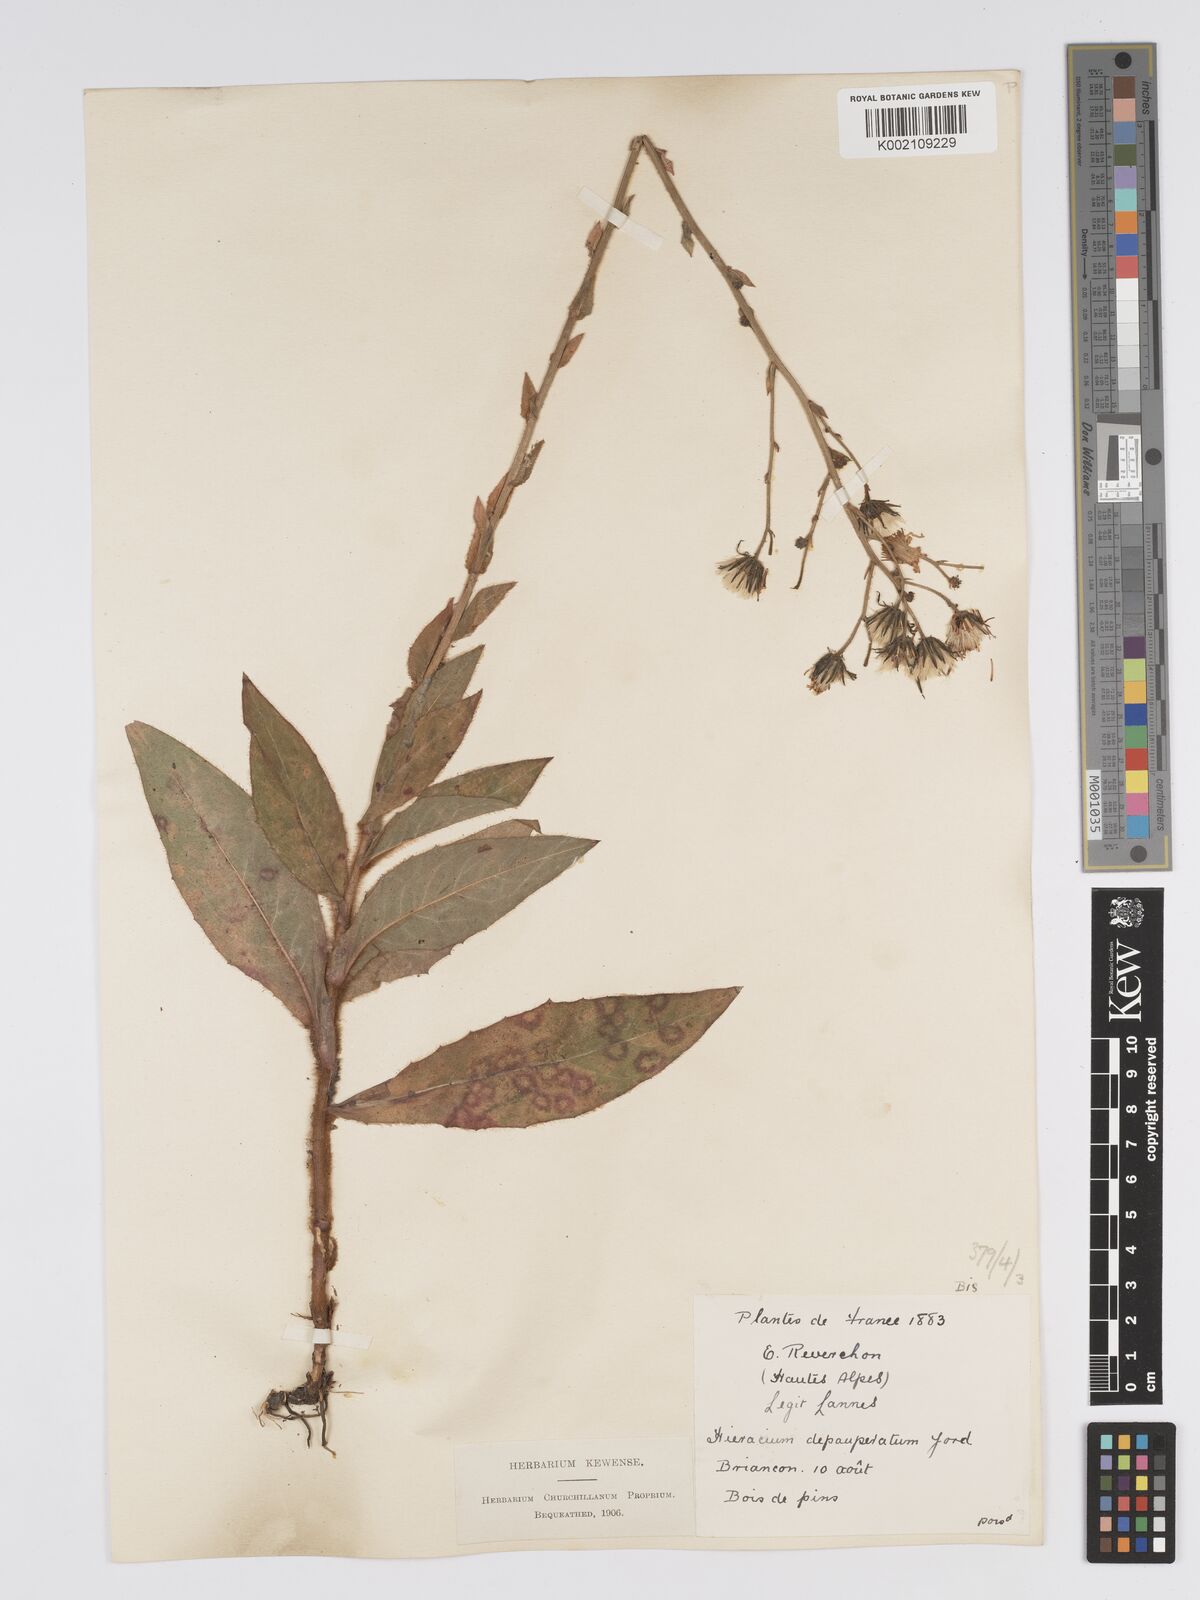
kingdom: Plantae
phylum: Tracheophyta
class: Magnoliopsida
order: Asterales
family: Asteraceae
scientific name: Asteraceae
